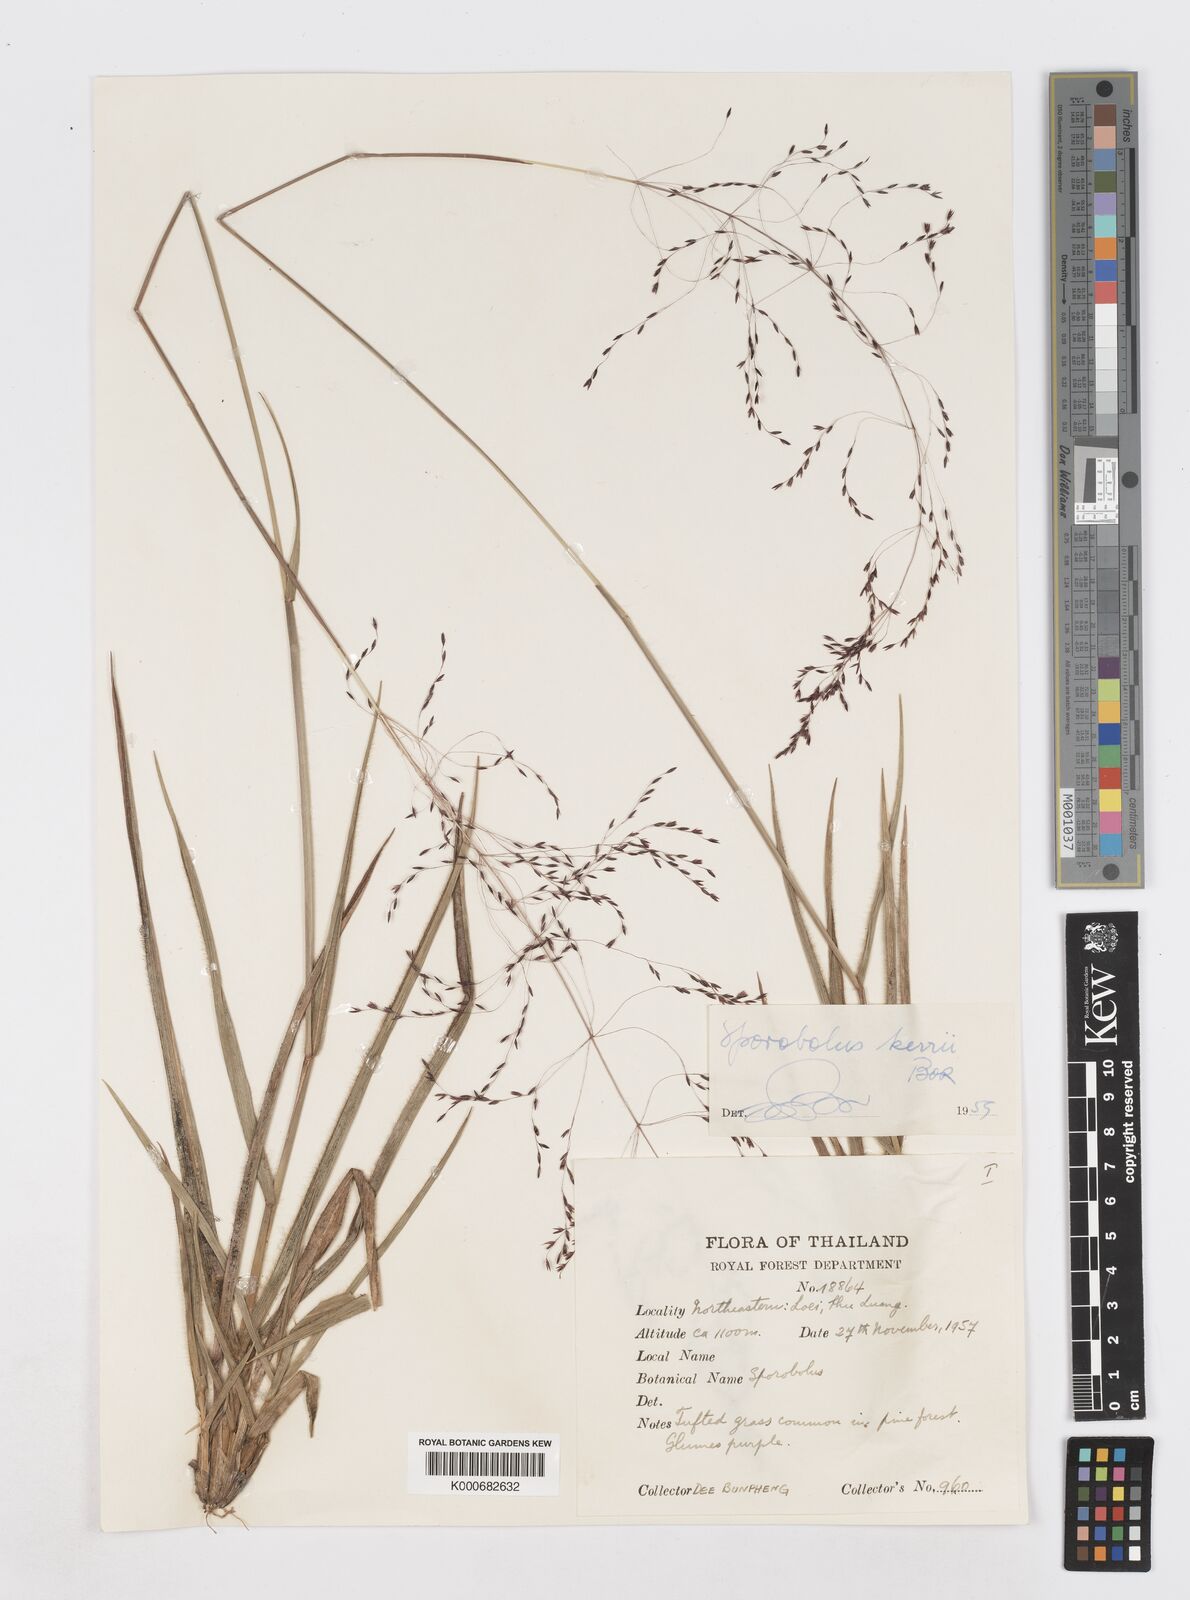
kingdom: Plantae
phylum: Tracheophyta
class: Liliopsida
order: Poales
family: Poaceae
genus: Sporobolus
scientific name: Sporobolus kerrii
